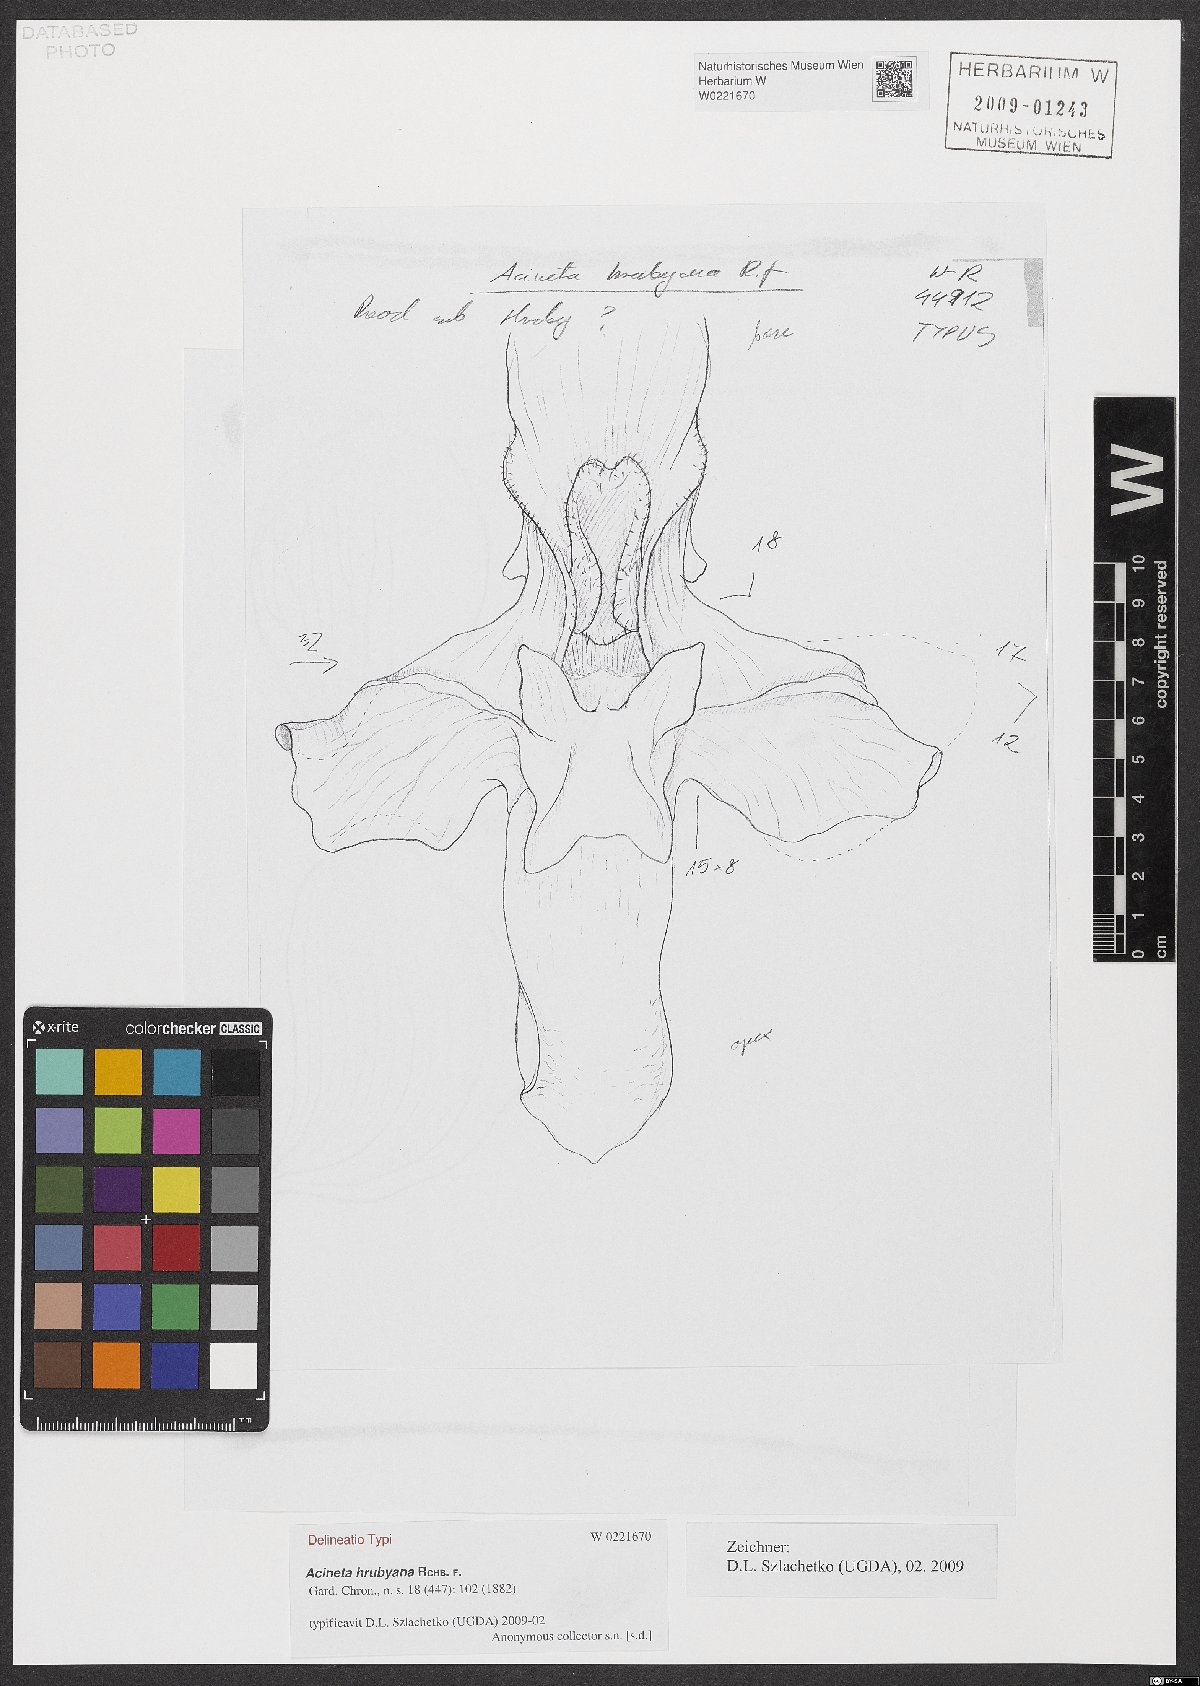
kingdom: Plantae
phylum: Tracheophyta
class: Liliopsida
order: Asparagales
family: Orchidaceae
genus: Acineta
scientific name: Acineta hrubyana
